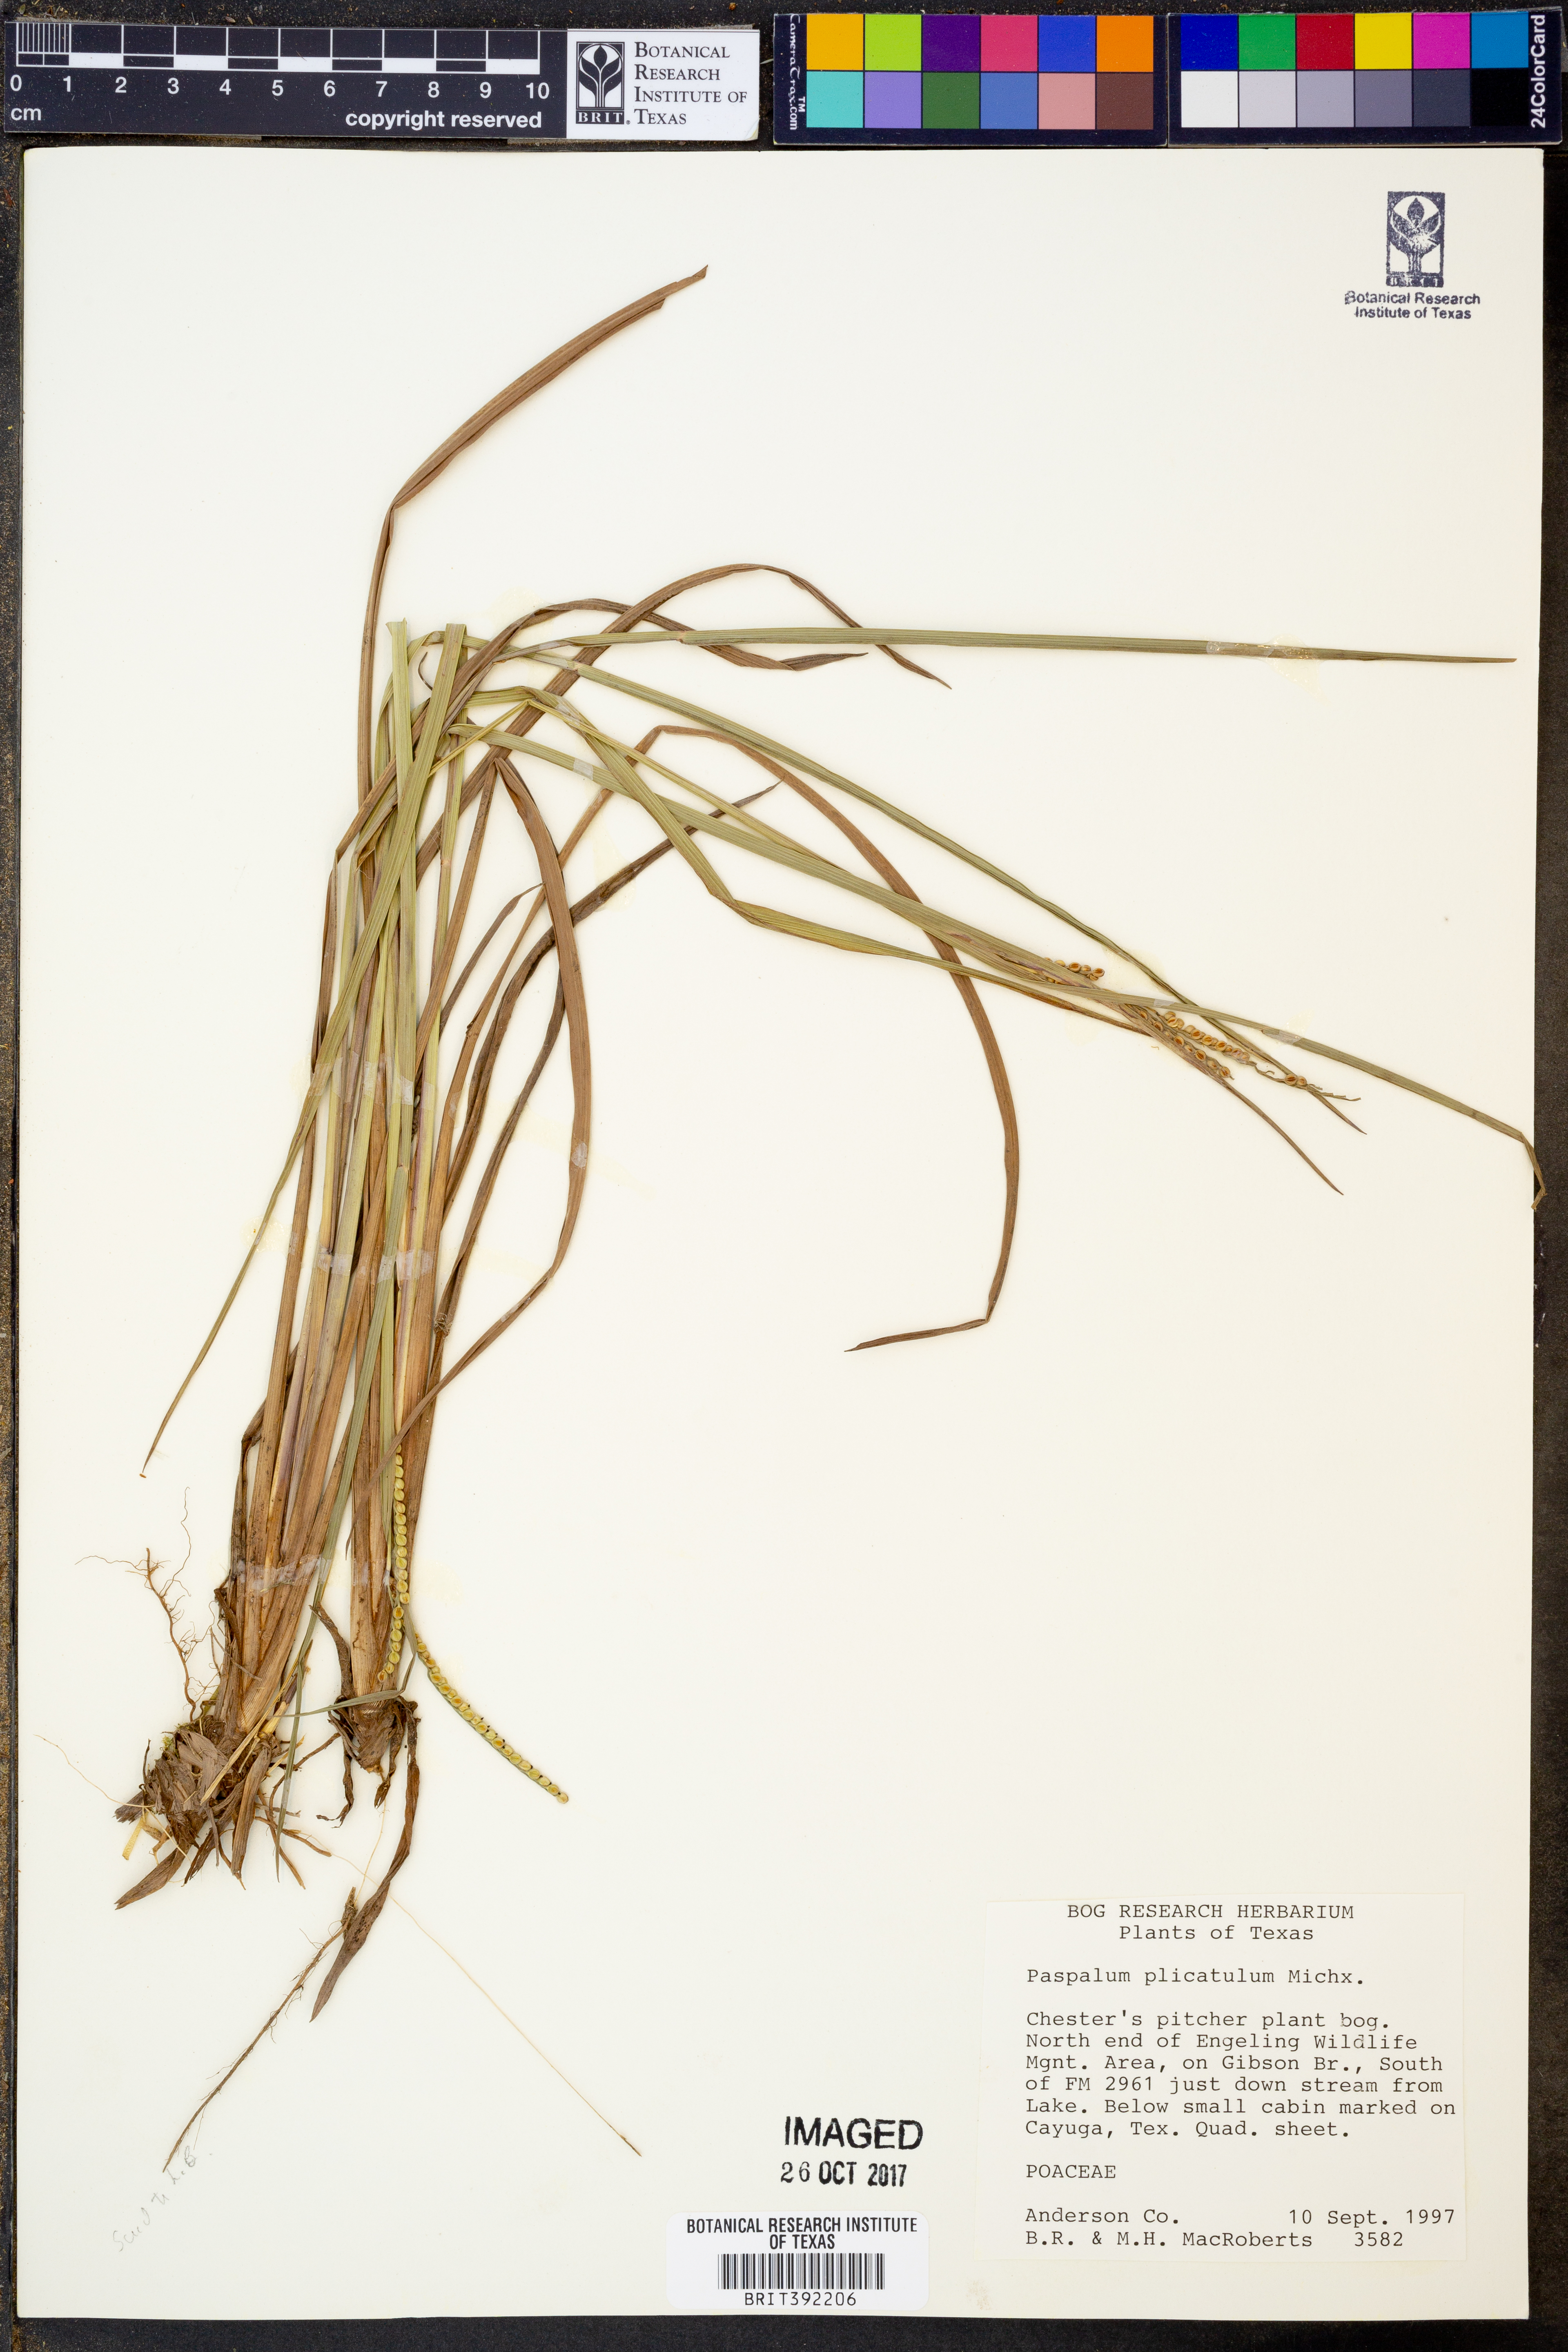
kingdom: Plantae
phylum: Tracheophyta
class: Liliopsida
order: Poales
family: Poaceae
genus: Paspalum
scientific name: Paspalum plicatulum
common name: Top paspalum
